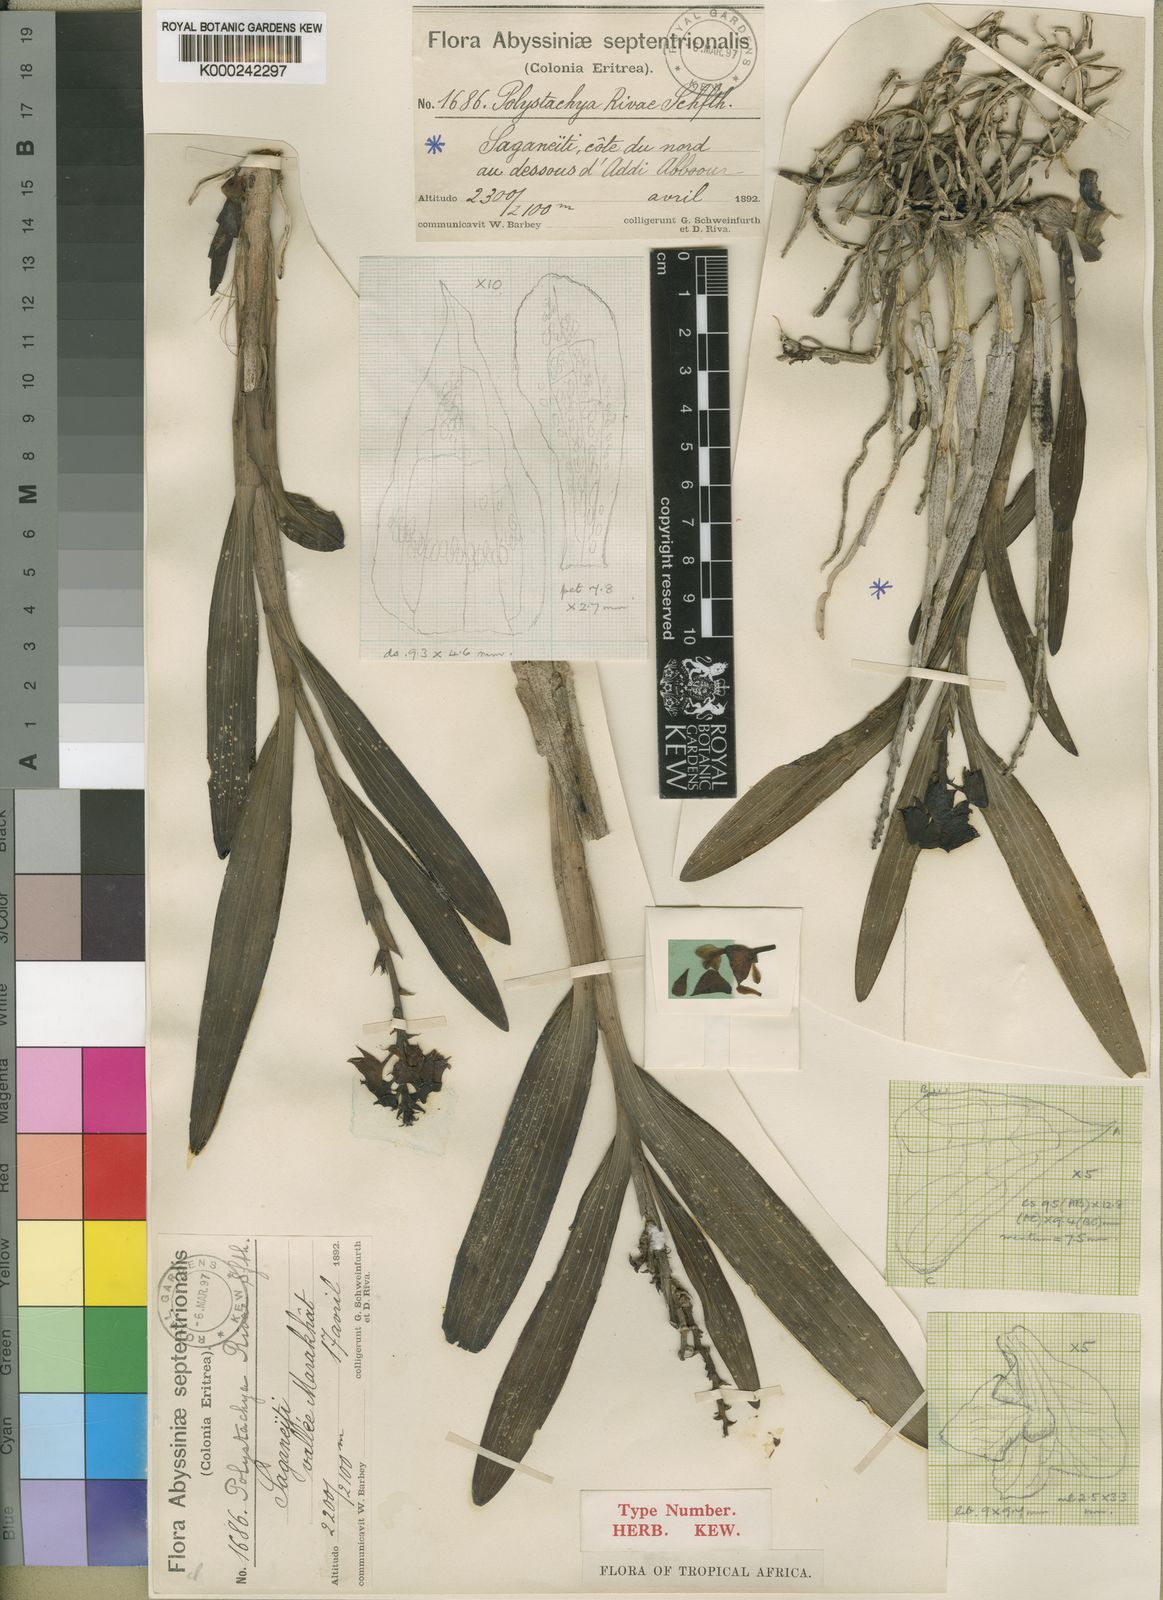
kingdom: Plantae
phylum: Tracheophyta
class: Liliopsida
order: Asparagales
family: Orchidaceae
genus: Polystachya
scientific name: Polystachya rivae
